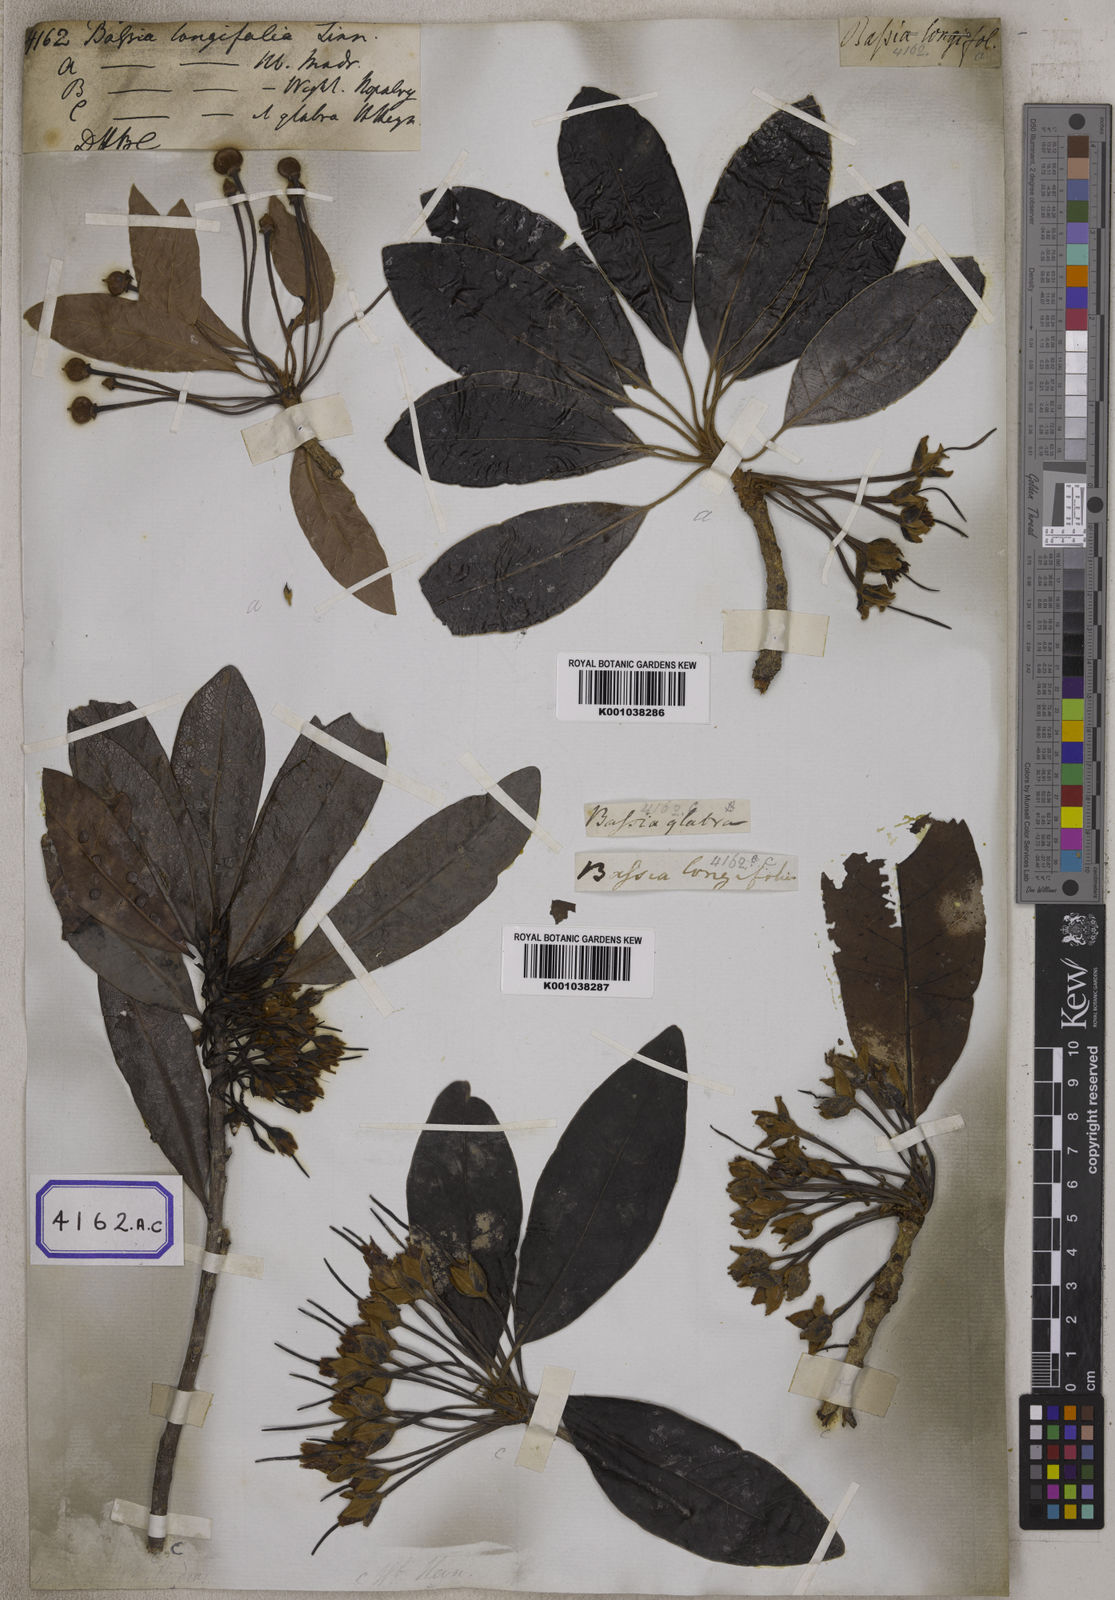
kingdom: Plantae
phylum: Tracheophyta
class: Magnoliopsida
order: Ericales
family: Sapotaceae
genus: Madhuca
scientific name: Madhuca longifolia
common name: Mowra-buttertree
